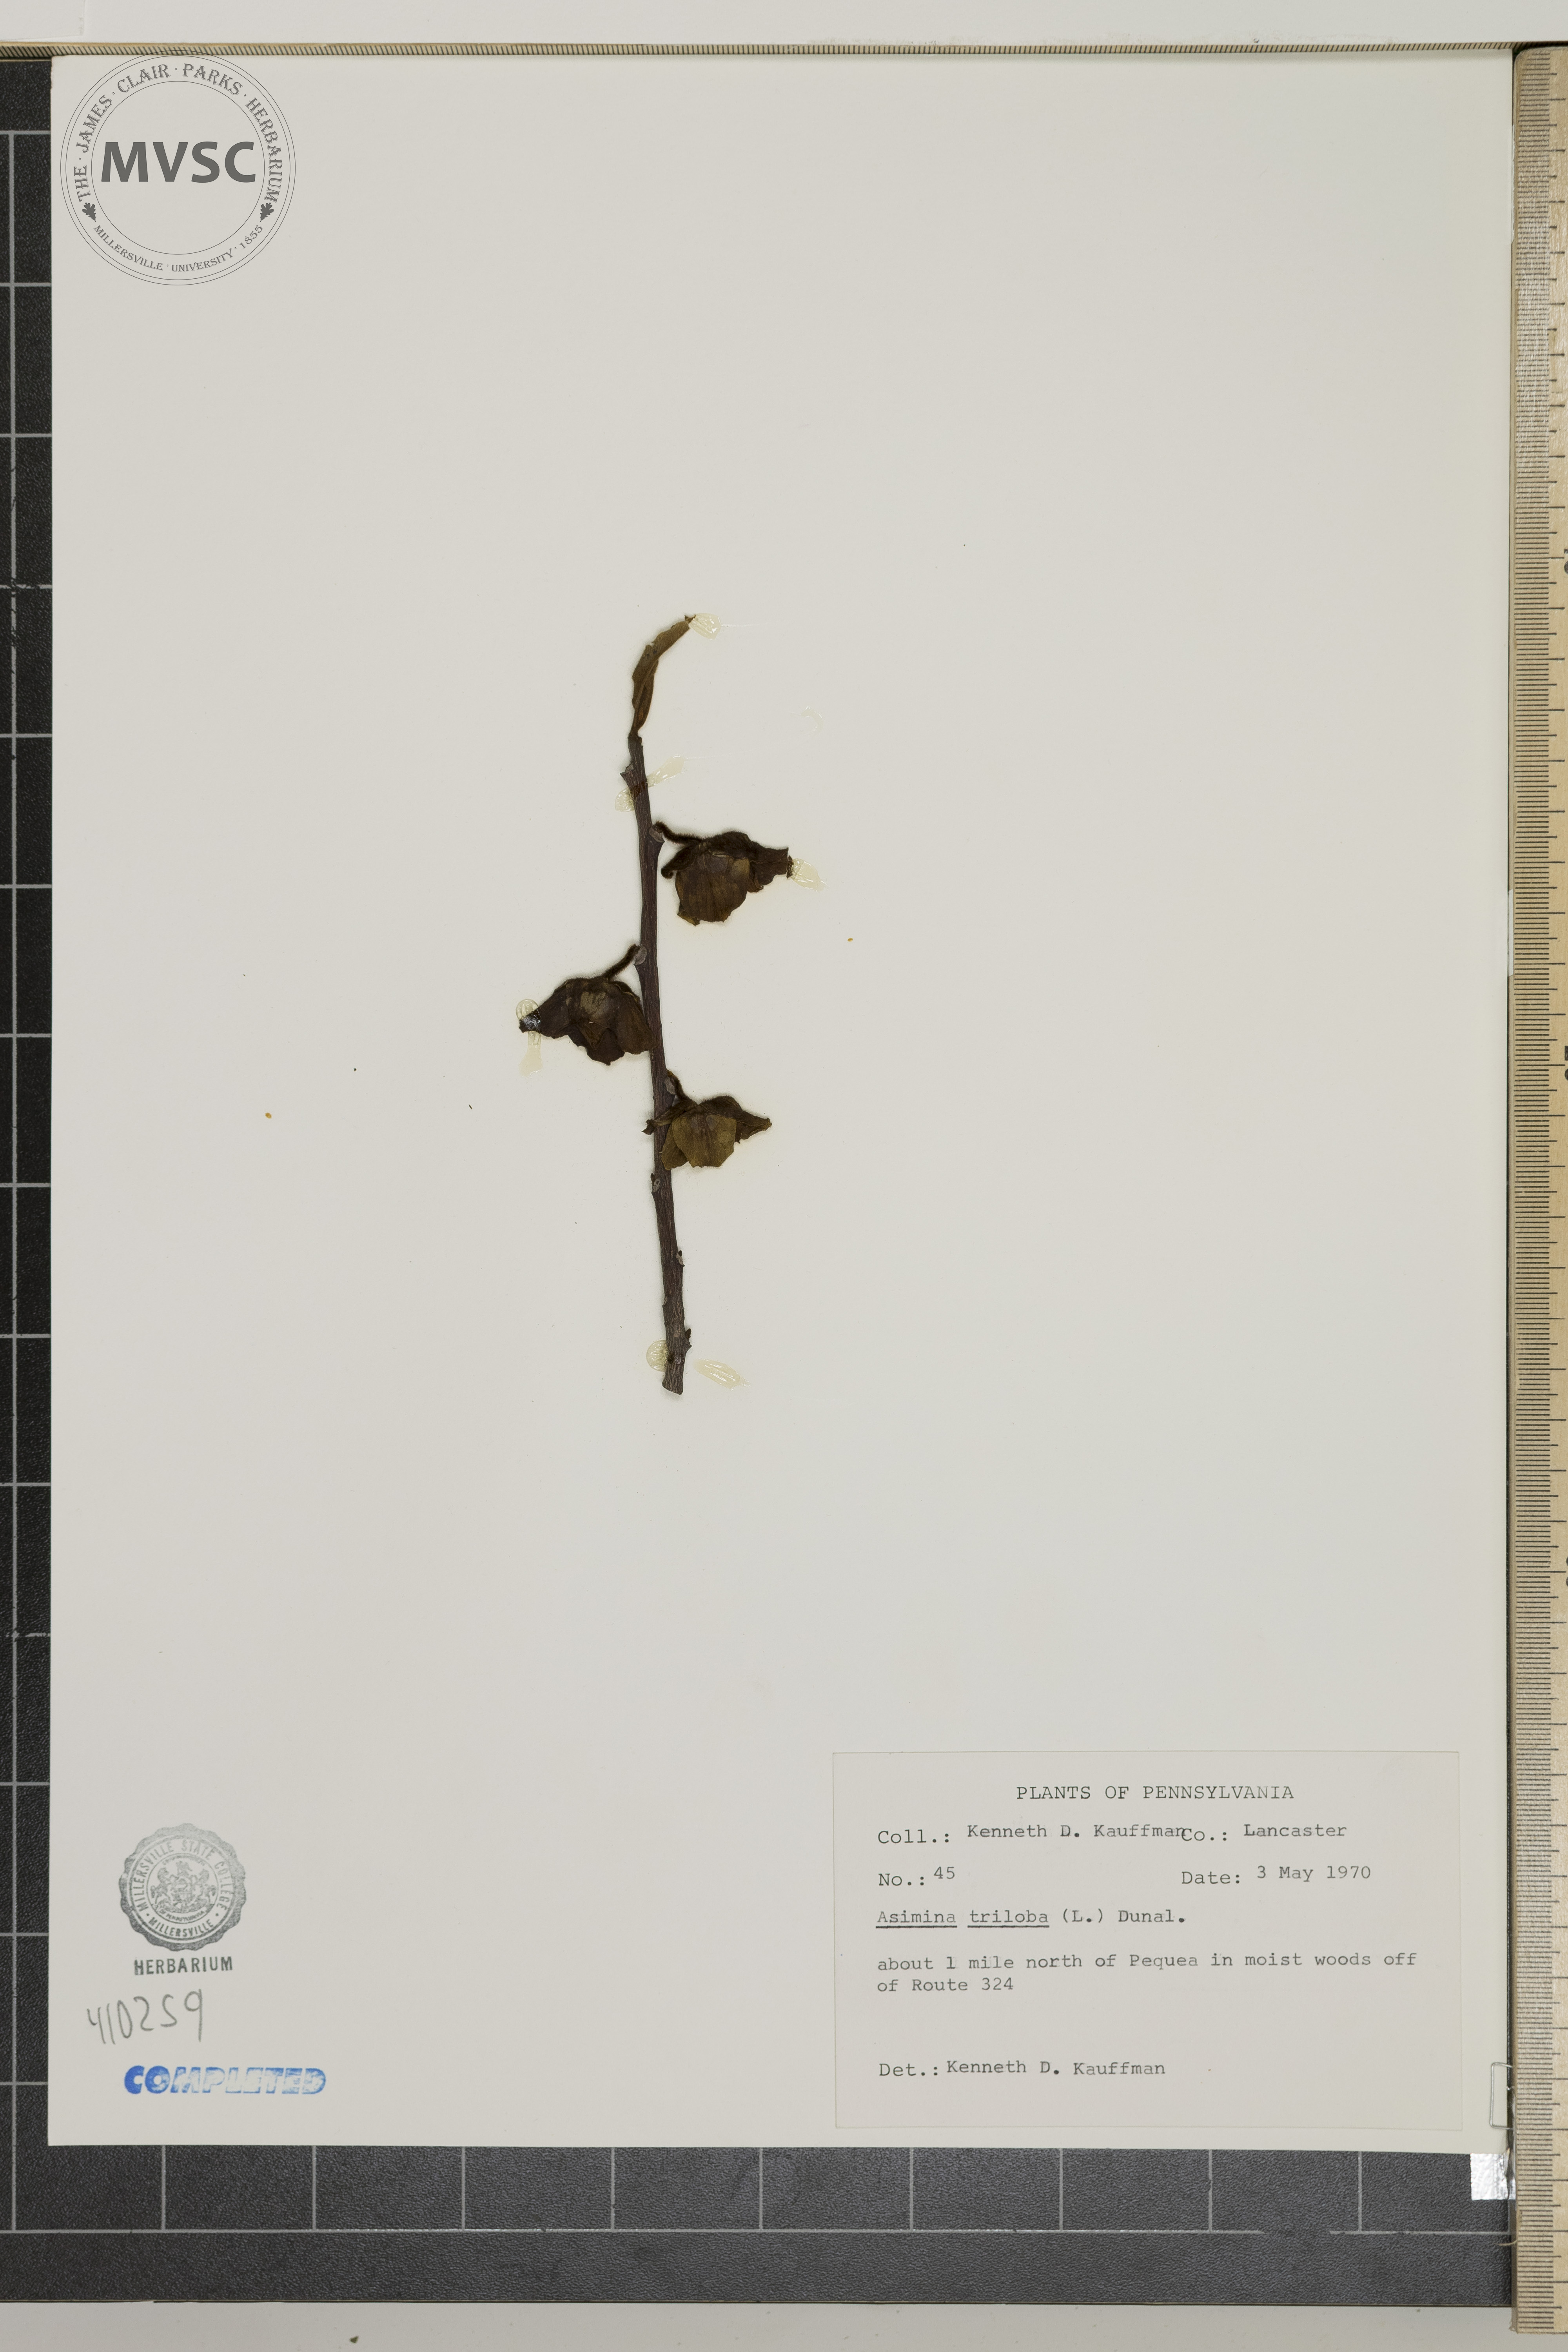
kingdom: Plantae
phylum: Tracheophyta
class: Magnoliopsida
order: Magnoliales
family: Annonaceae
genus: Asimina
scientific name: Asimina triloba
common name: Dog-banana
